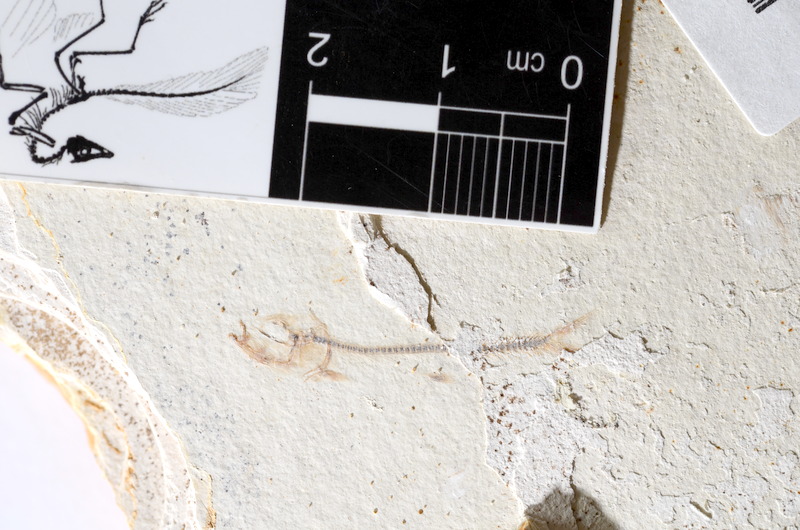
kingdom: Animalia
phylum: Chordata
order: Salmoniformes
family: Orthogonikleithridae
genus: Orthogonikleithrus
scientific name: Orthogonikleithrus hoelli
